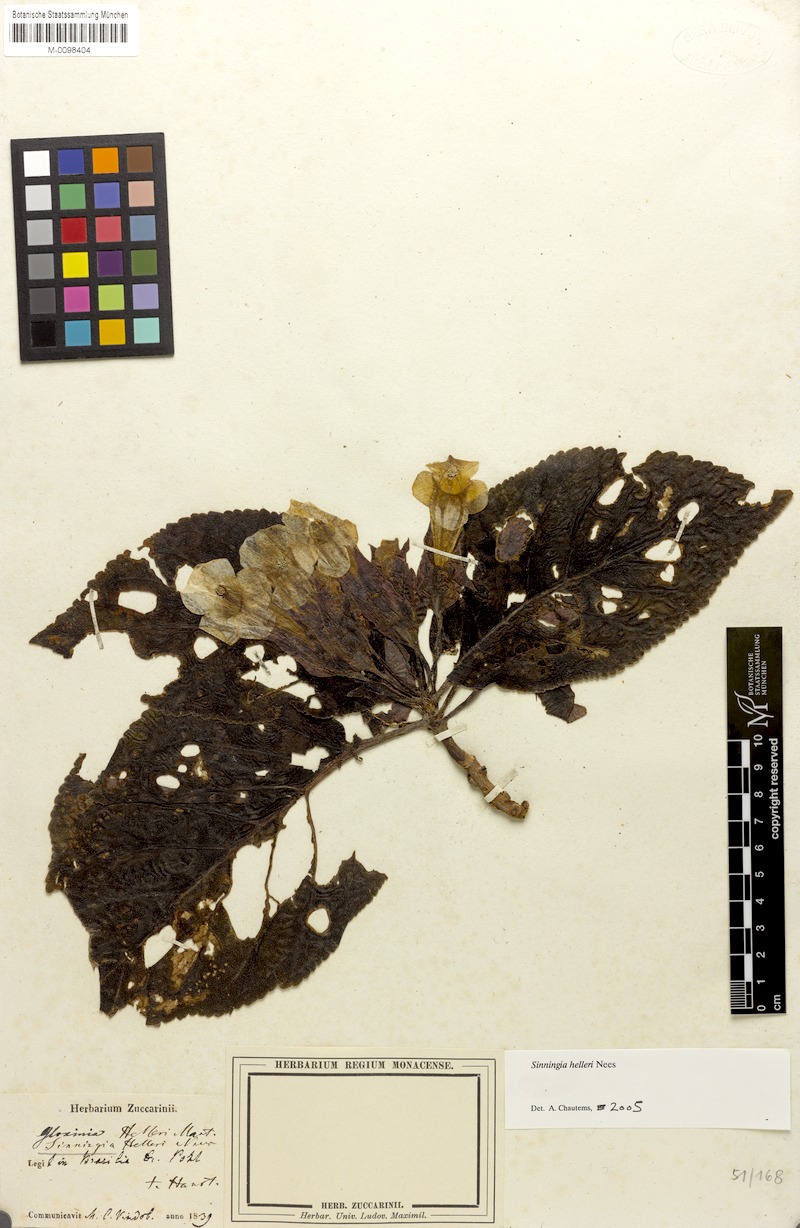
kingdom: Plantae
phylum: Tracheophyta
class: Magnoliopsida
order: Lamiales
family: Gesneriaceae
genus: Sinningia
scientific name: Sinningia helleri
